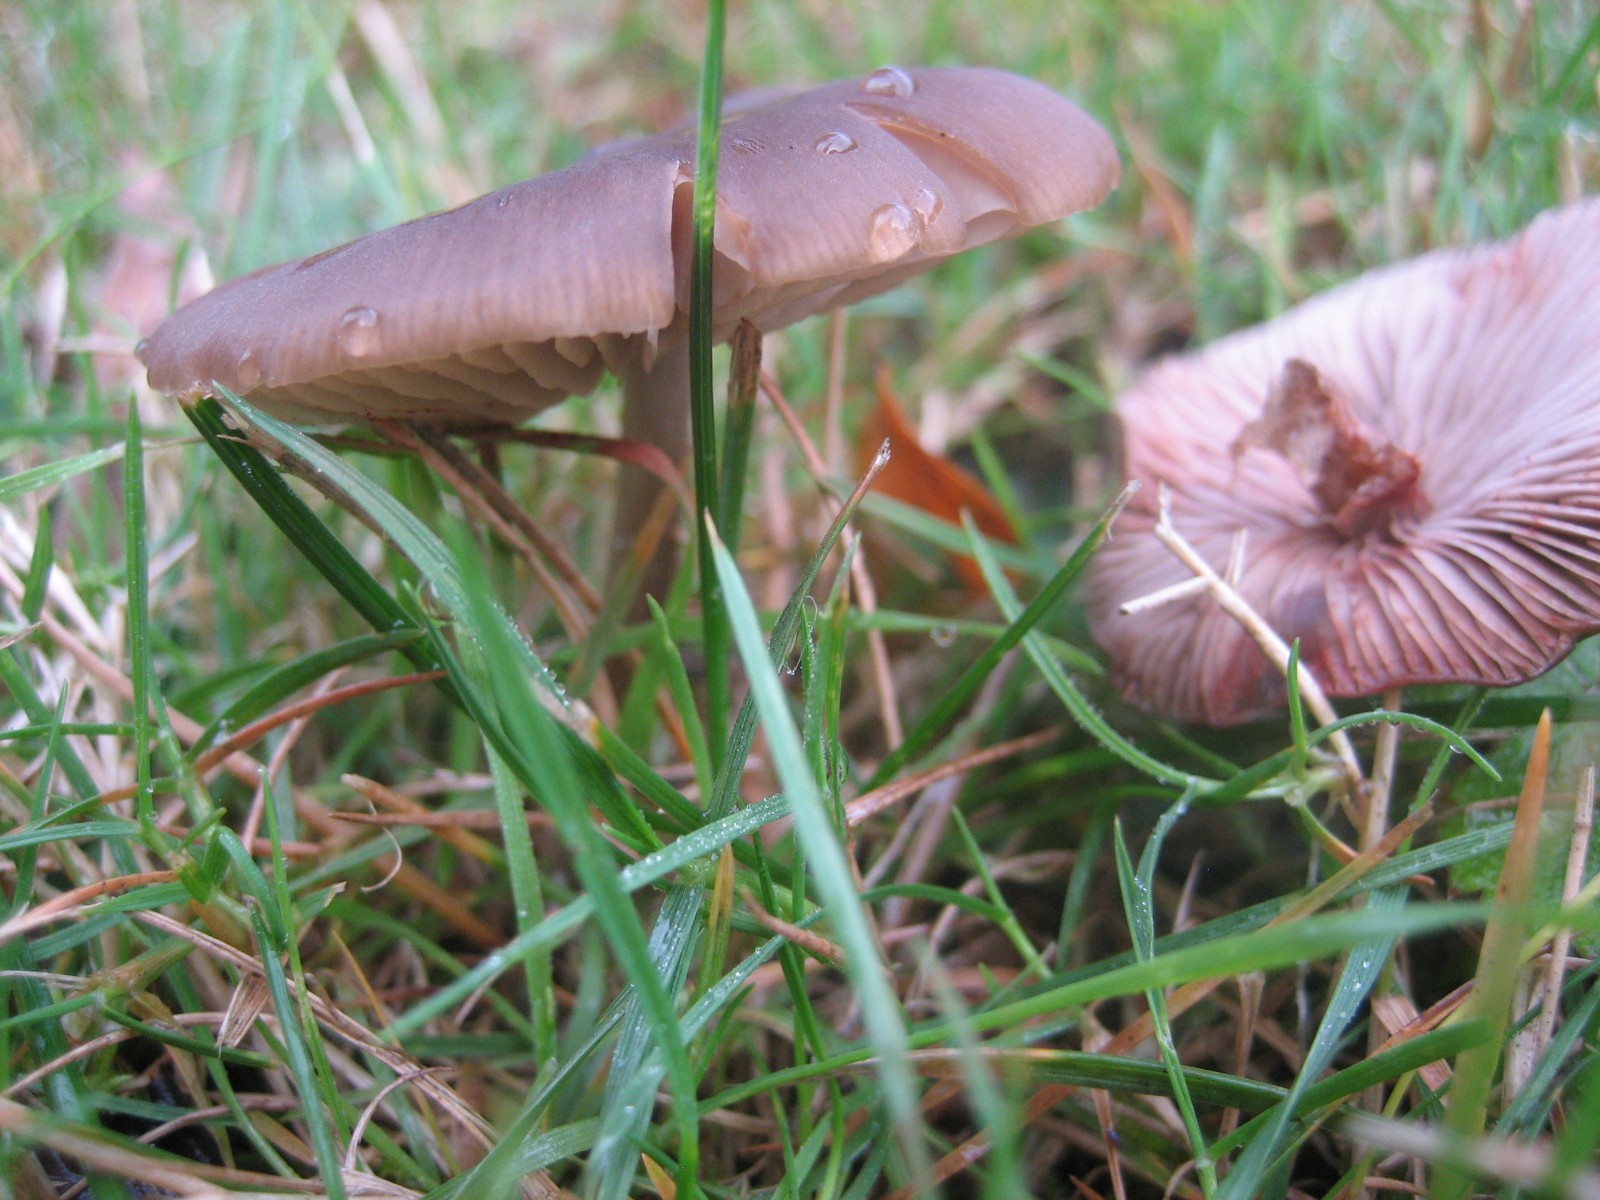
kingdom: Fungi
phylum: Basidiomycota
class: Agaricomycetes
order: Agaricales
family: Entolomataceae
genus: Entoloma
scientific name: Entoloma
